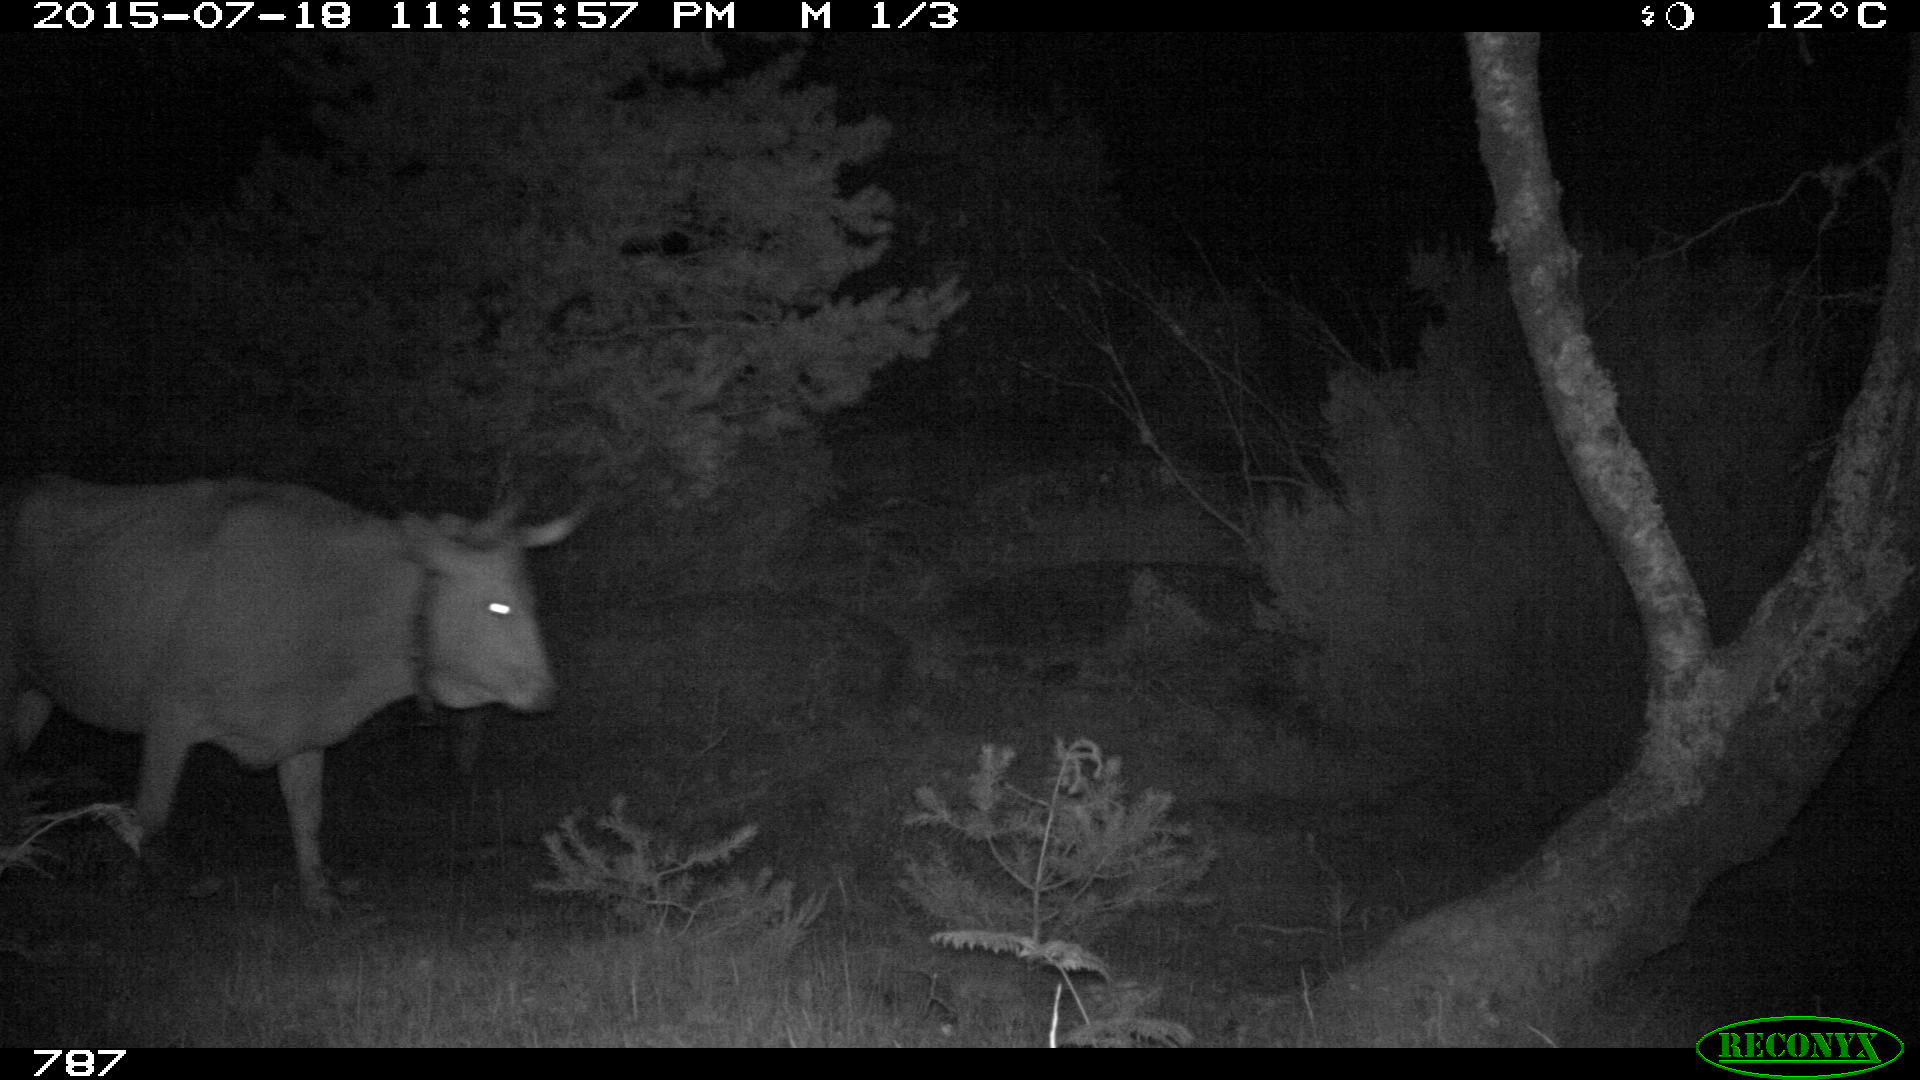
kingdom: Animalia
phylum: Chordata
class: Mammalia
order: Artiodactyla
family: Bovidae
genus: Bos
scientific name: Bos taurus
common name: Domesticated cattle
